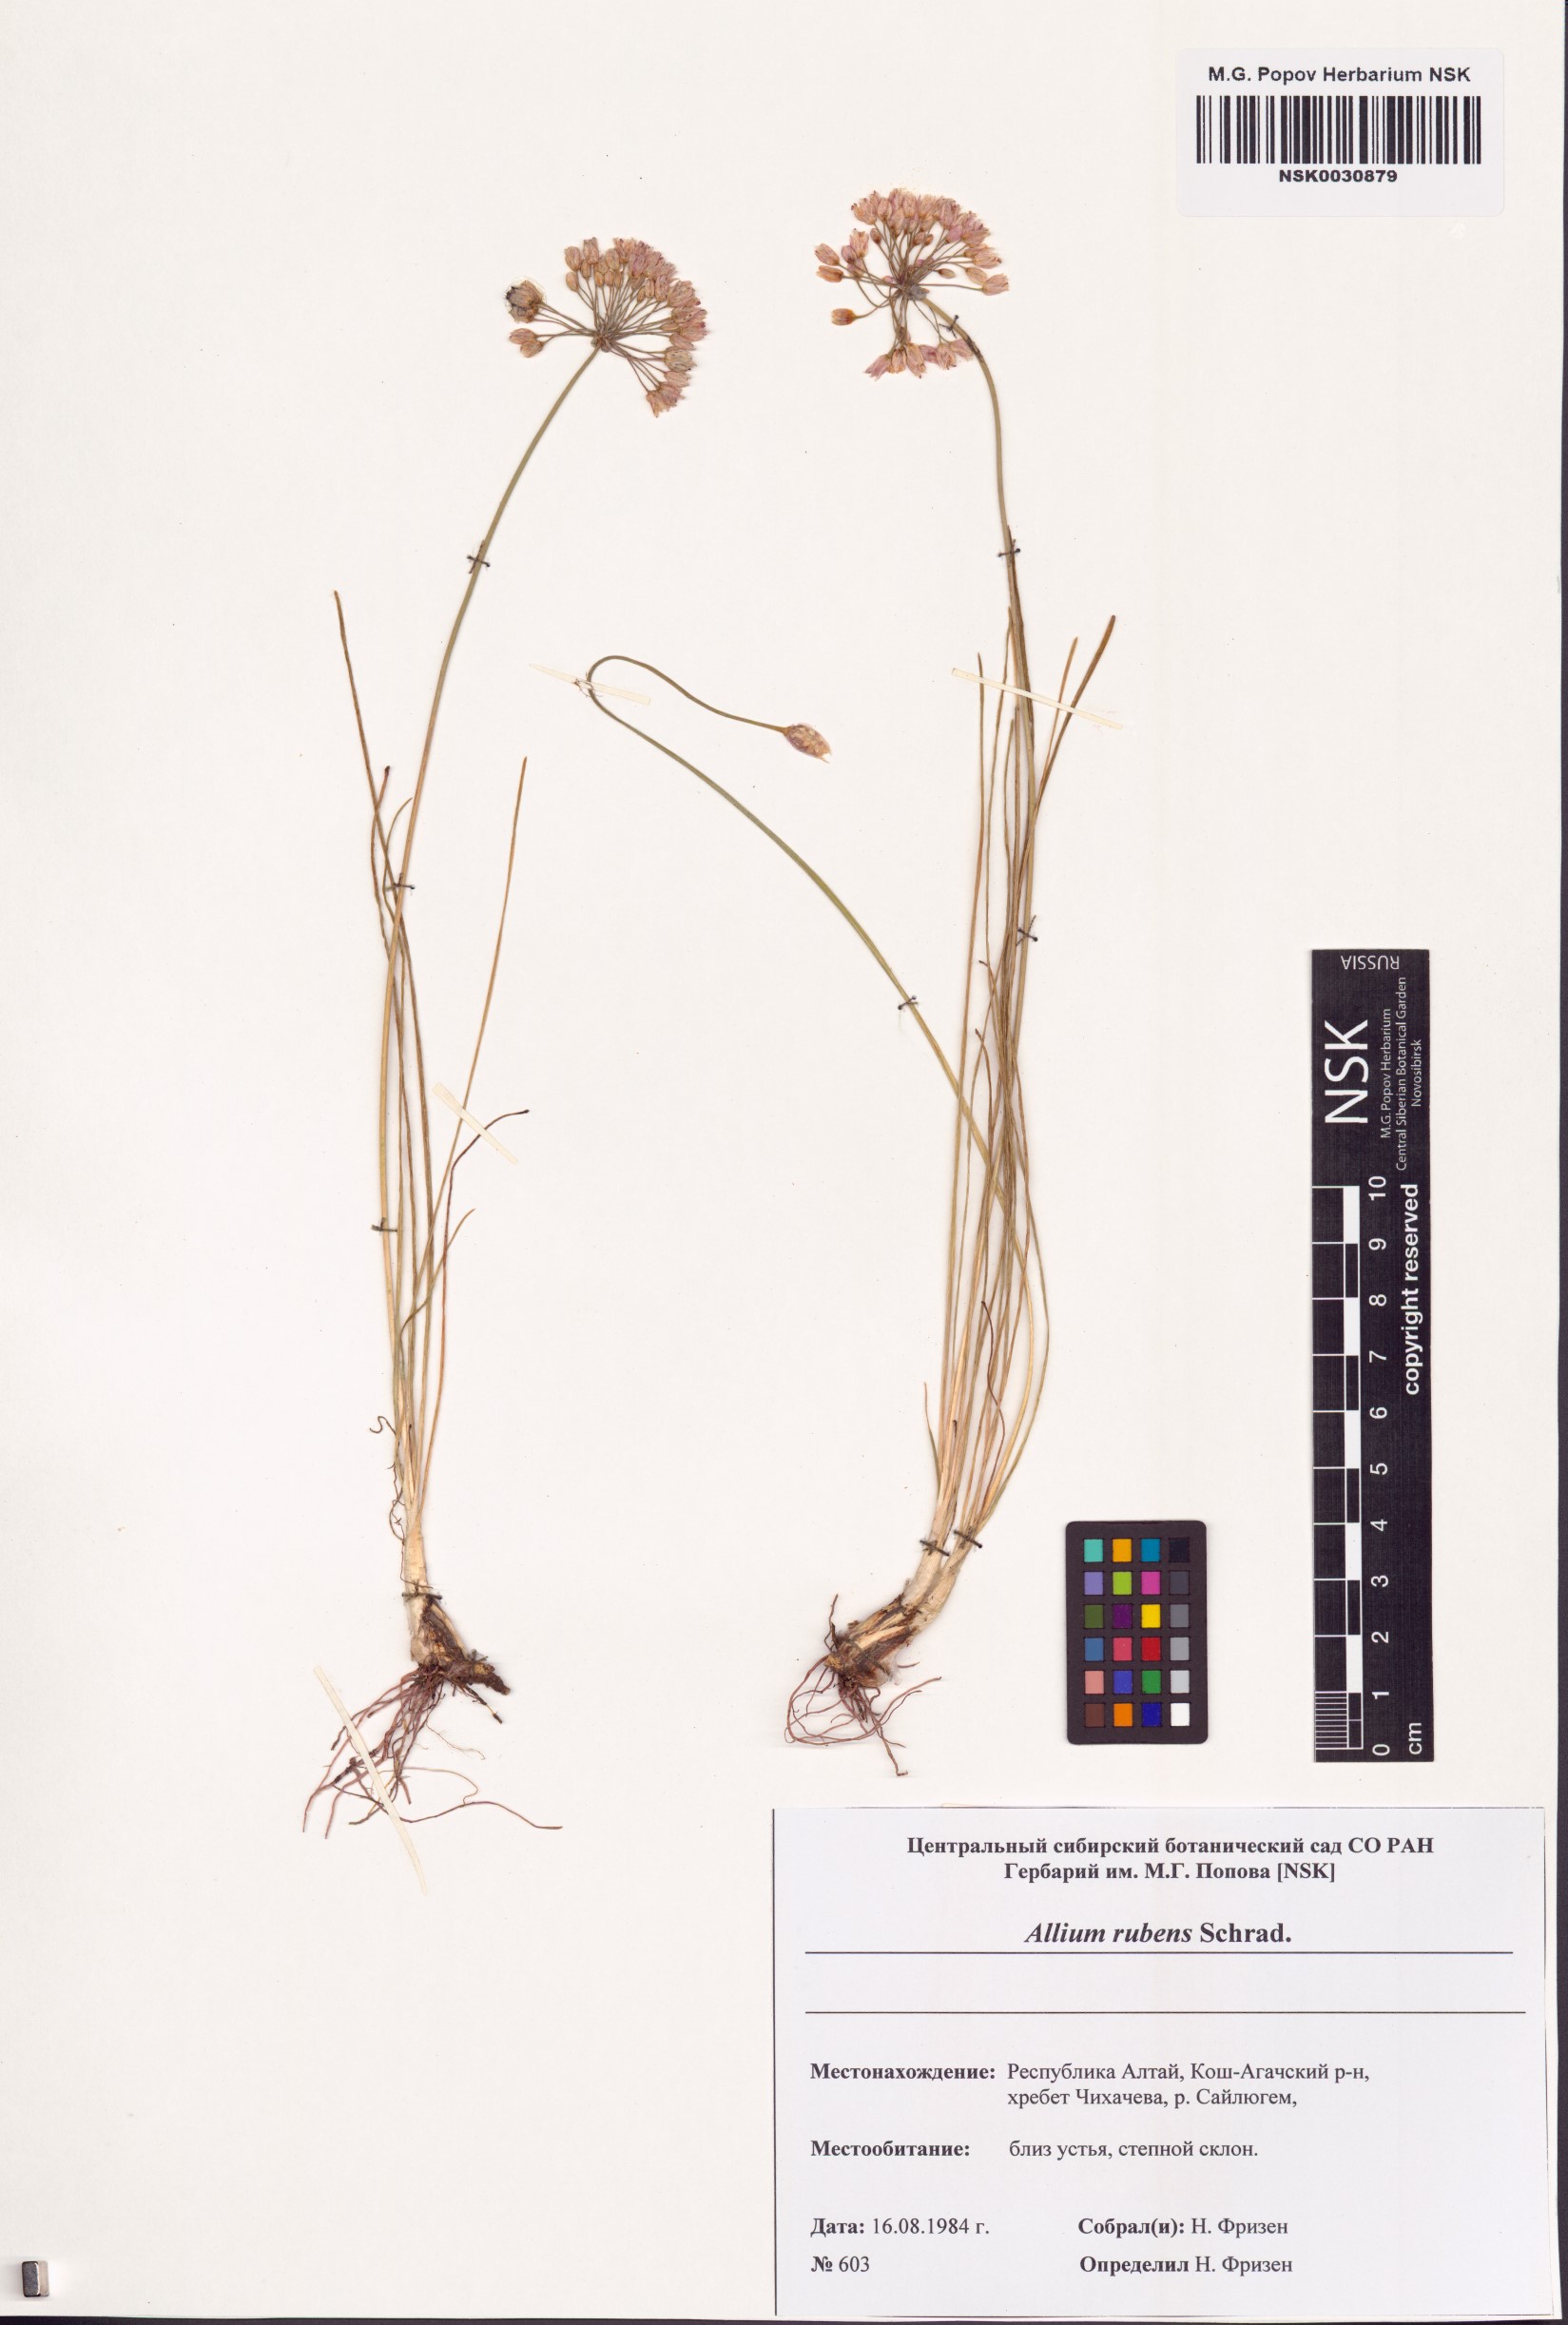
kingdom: Plantae
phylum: Tracheophyta
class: Liliopsida
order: Asparagales
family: Amaryllidaceae
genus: Allium
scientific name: Allium rubens
